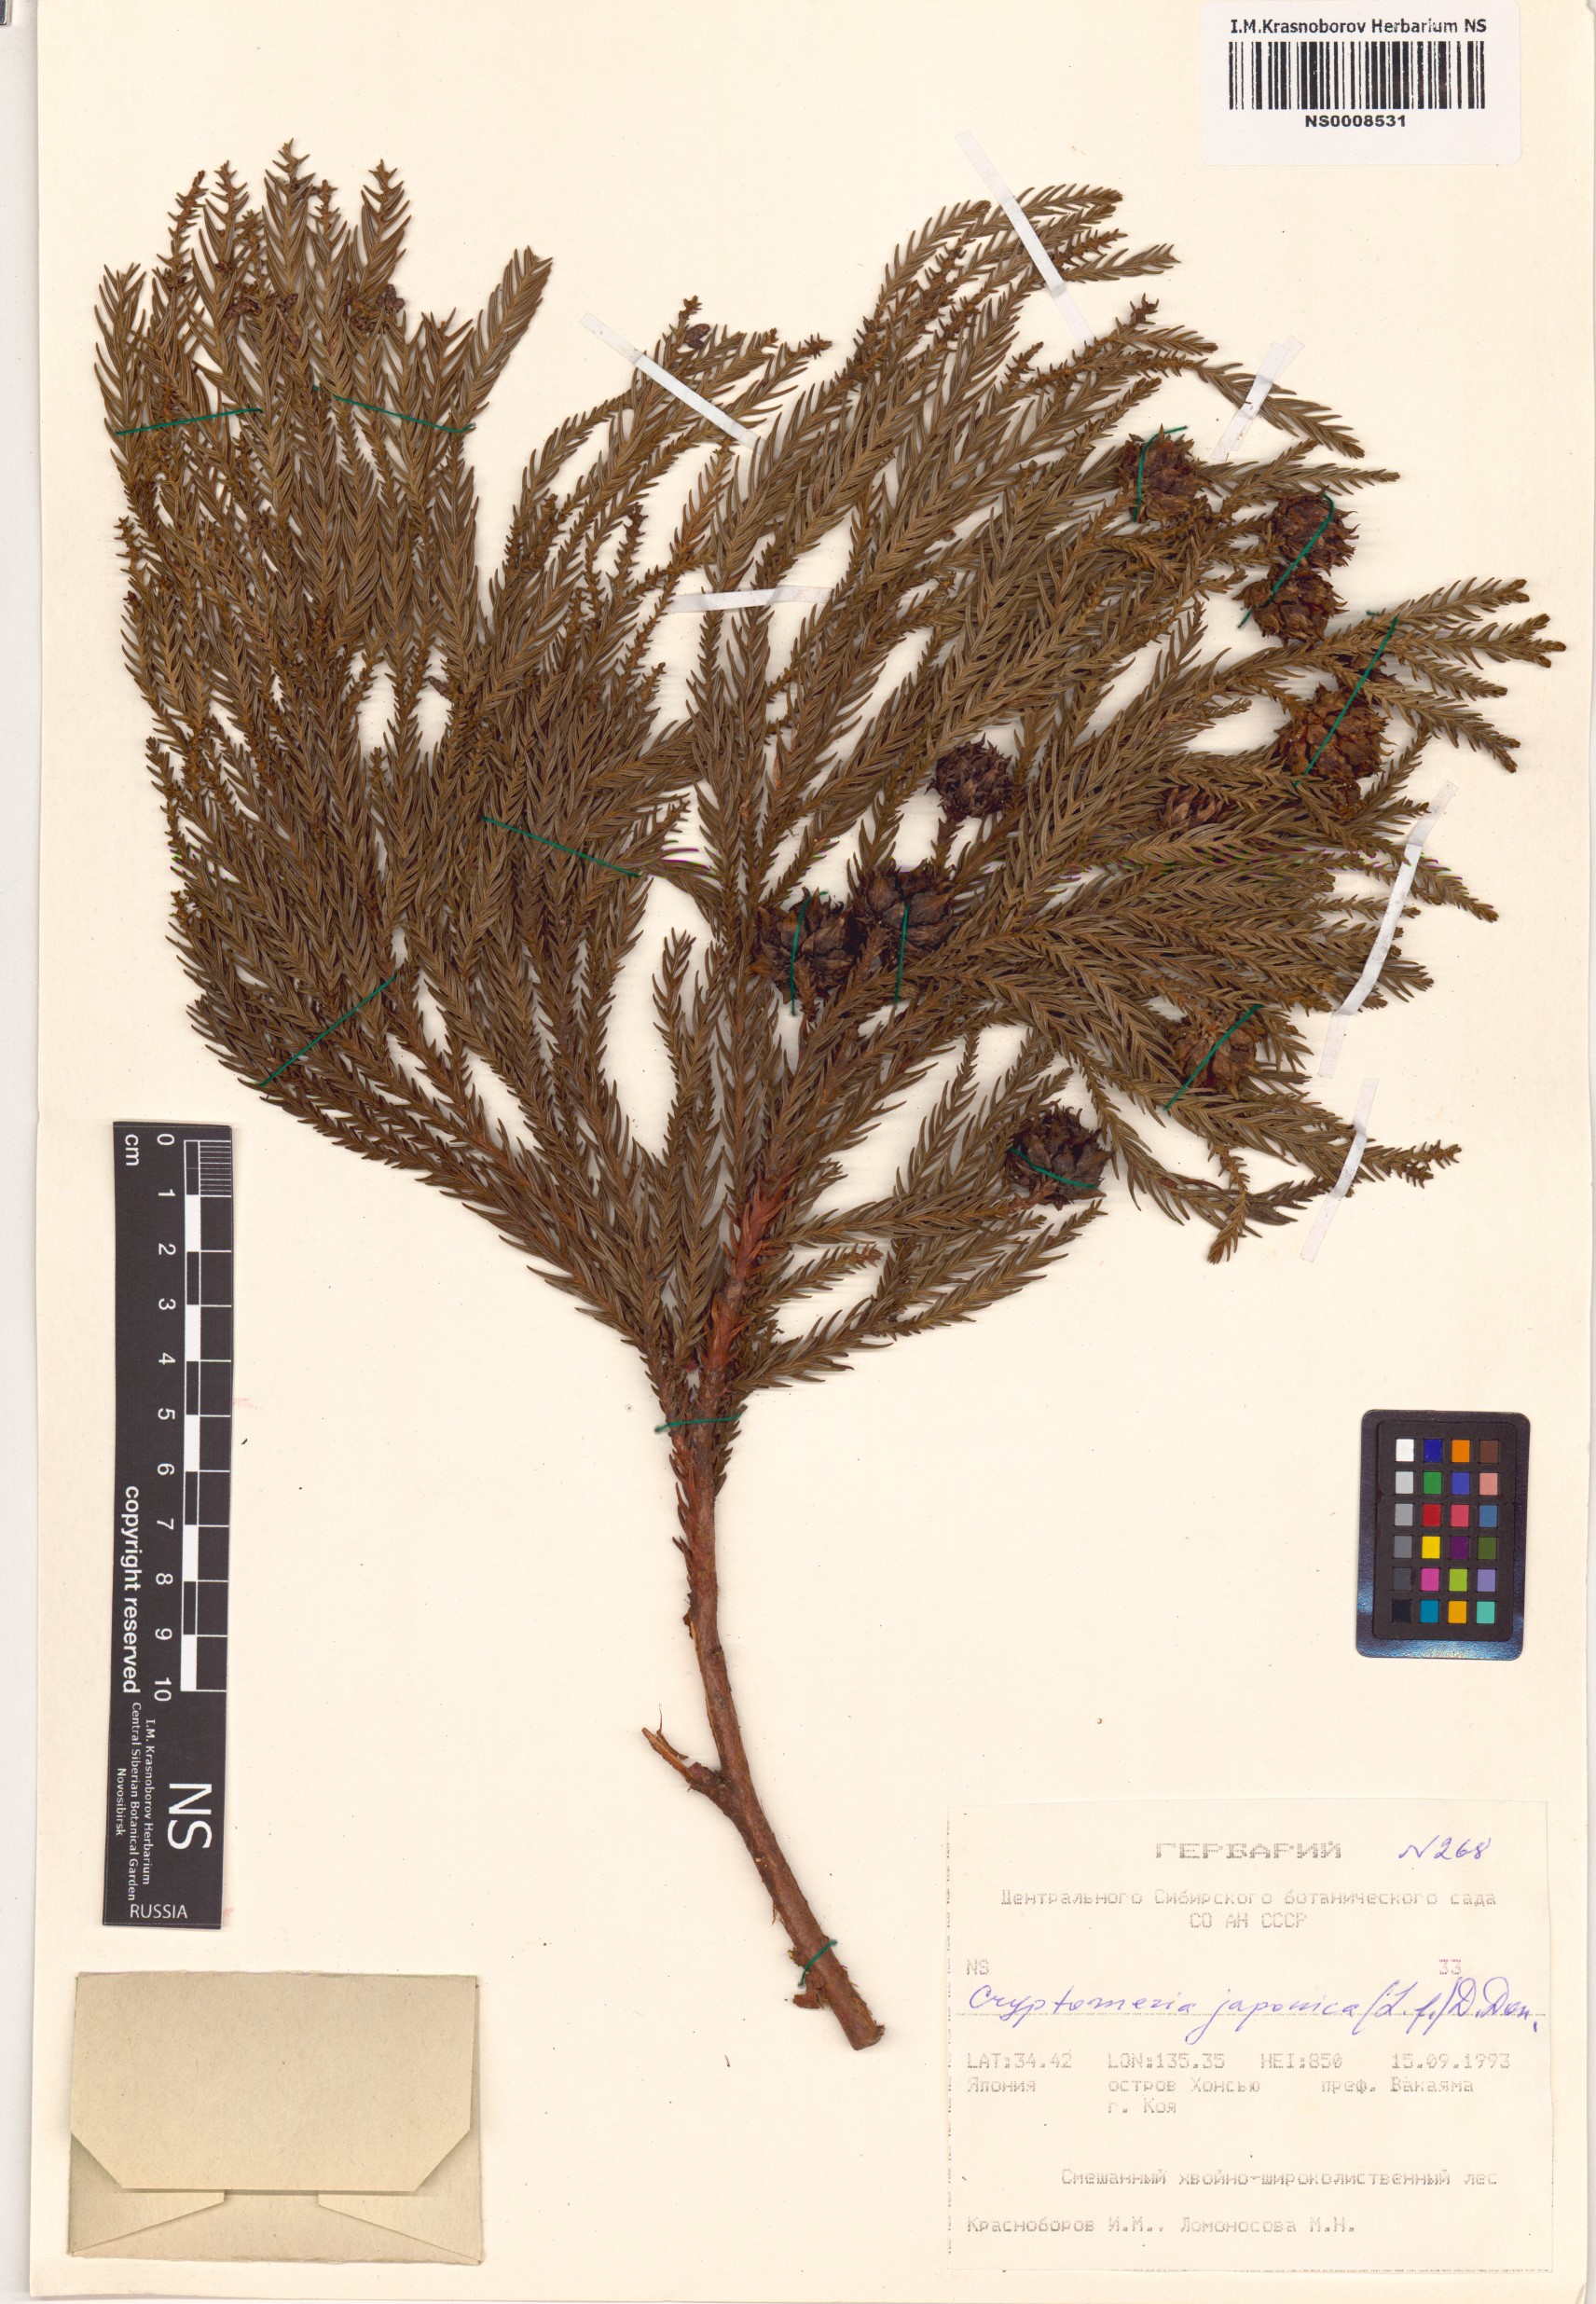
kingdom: Plantae
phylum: Tracheophyta
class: Pinopsida
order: Pinales
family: Cupressaceae
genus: Cryptomeria
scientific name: Cryptomeria japonica
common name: Japanese cedar
